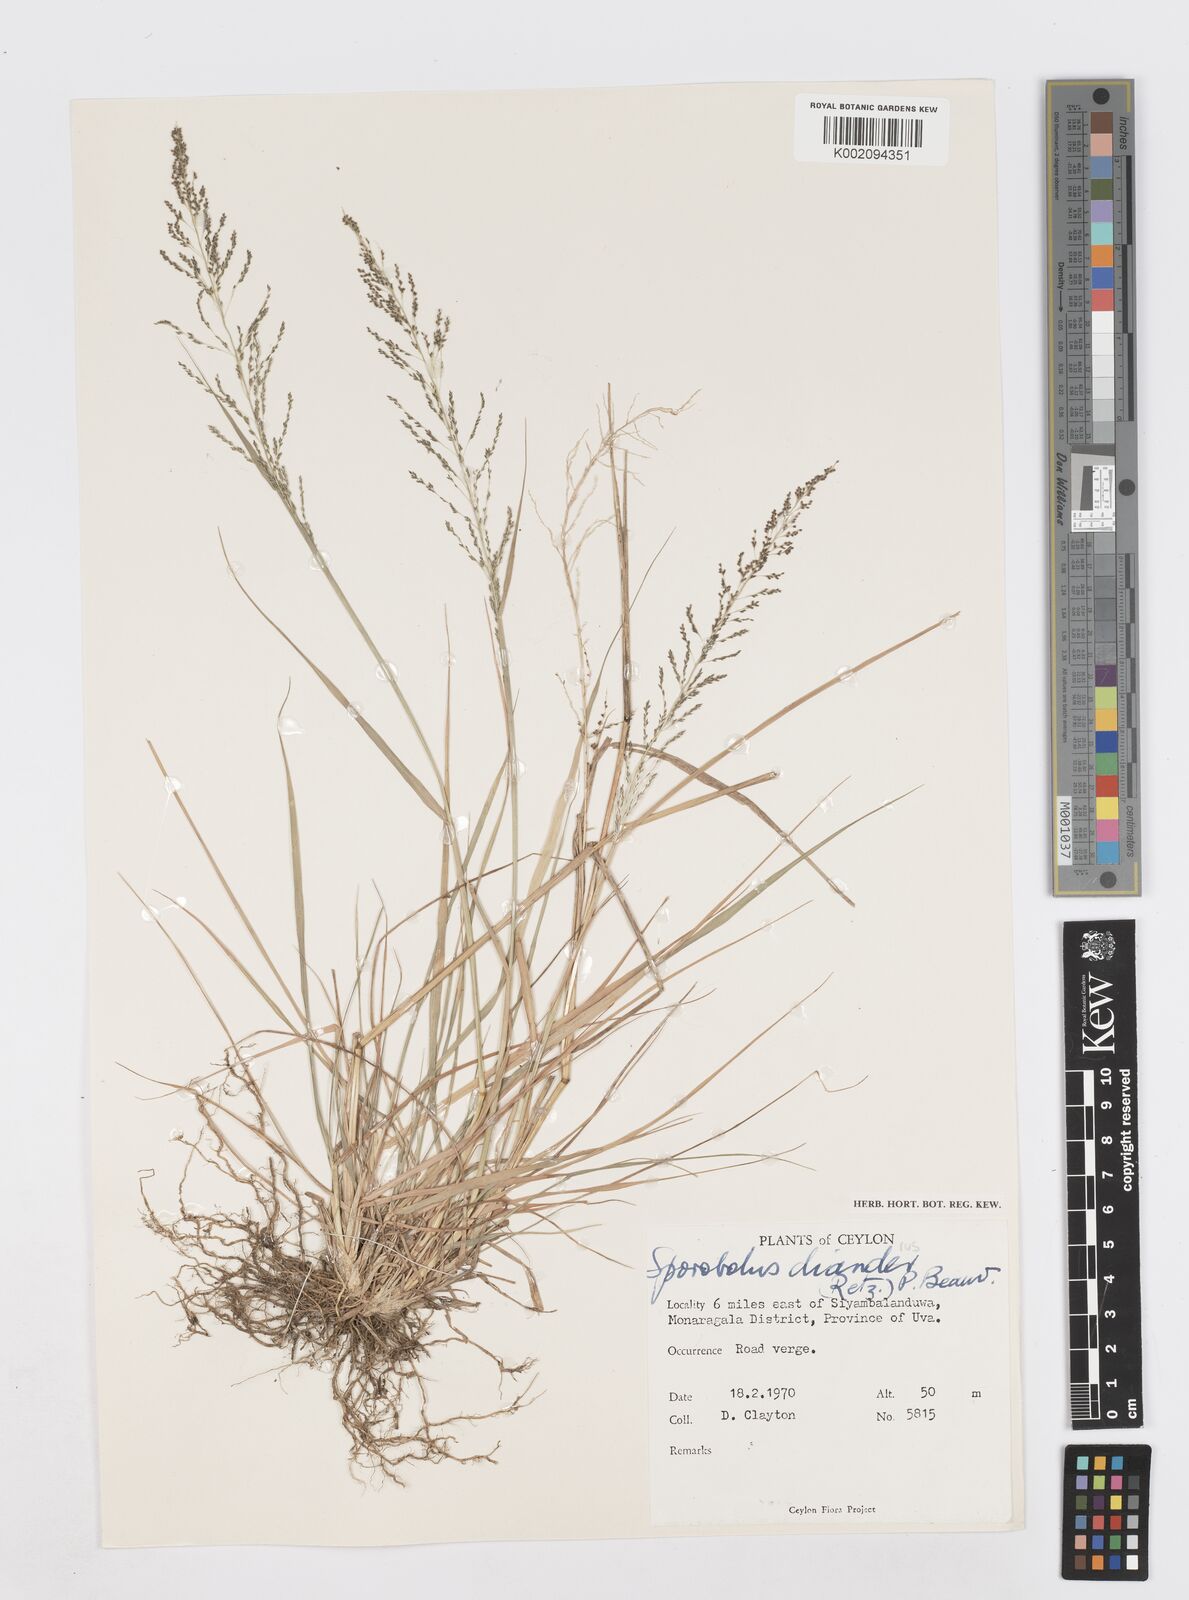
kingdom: Plantae
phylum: Tracheophyta
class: Liliopsida
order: Poales
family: Poaceae
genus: Sporobolus
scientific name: Sporobolus diandrus
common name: Tussock dropseed
